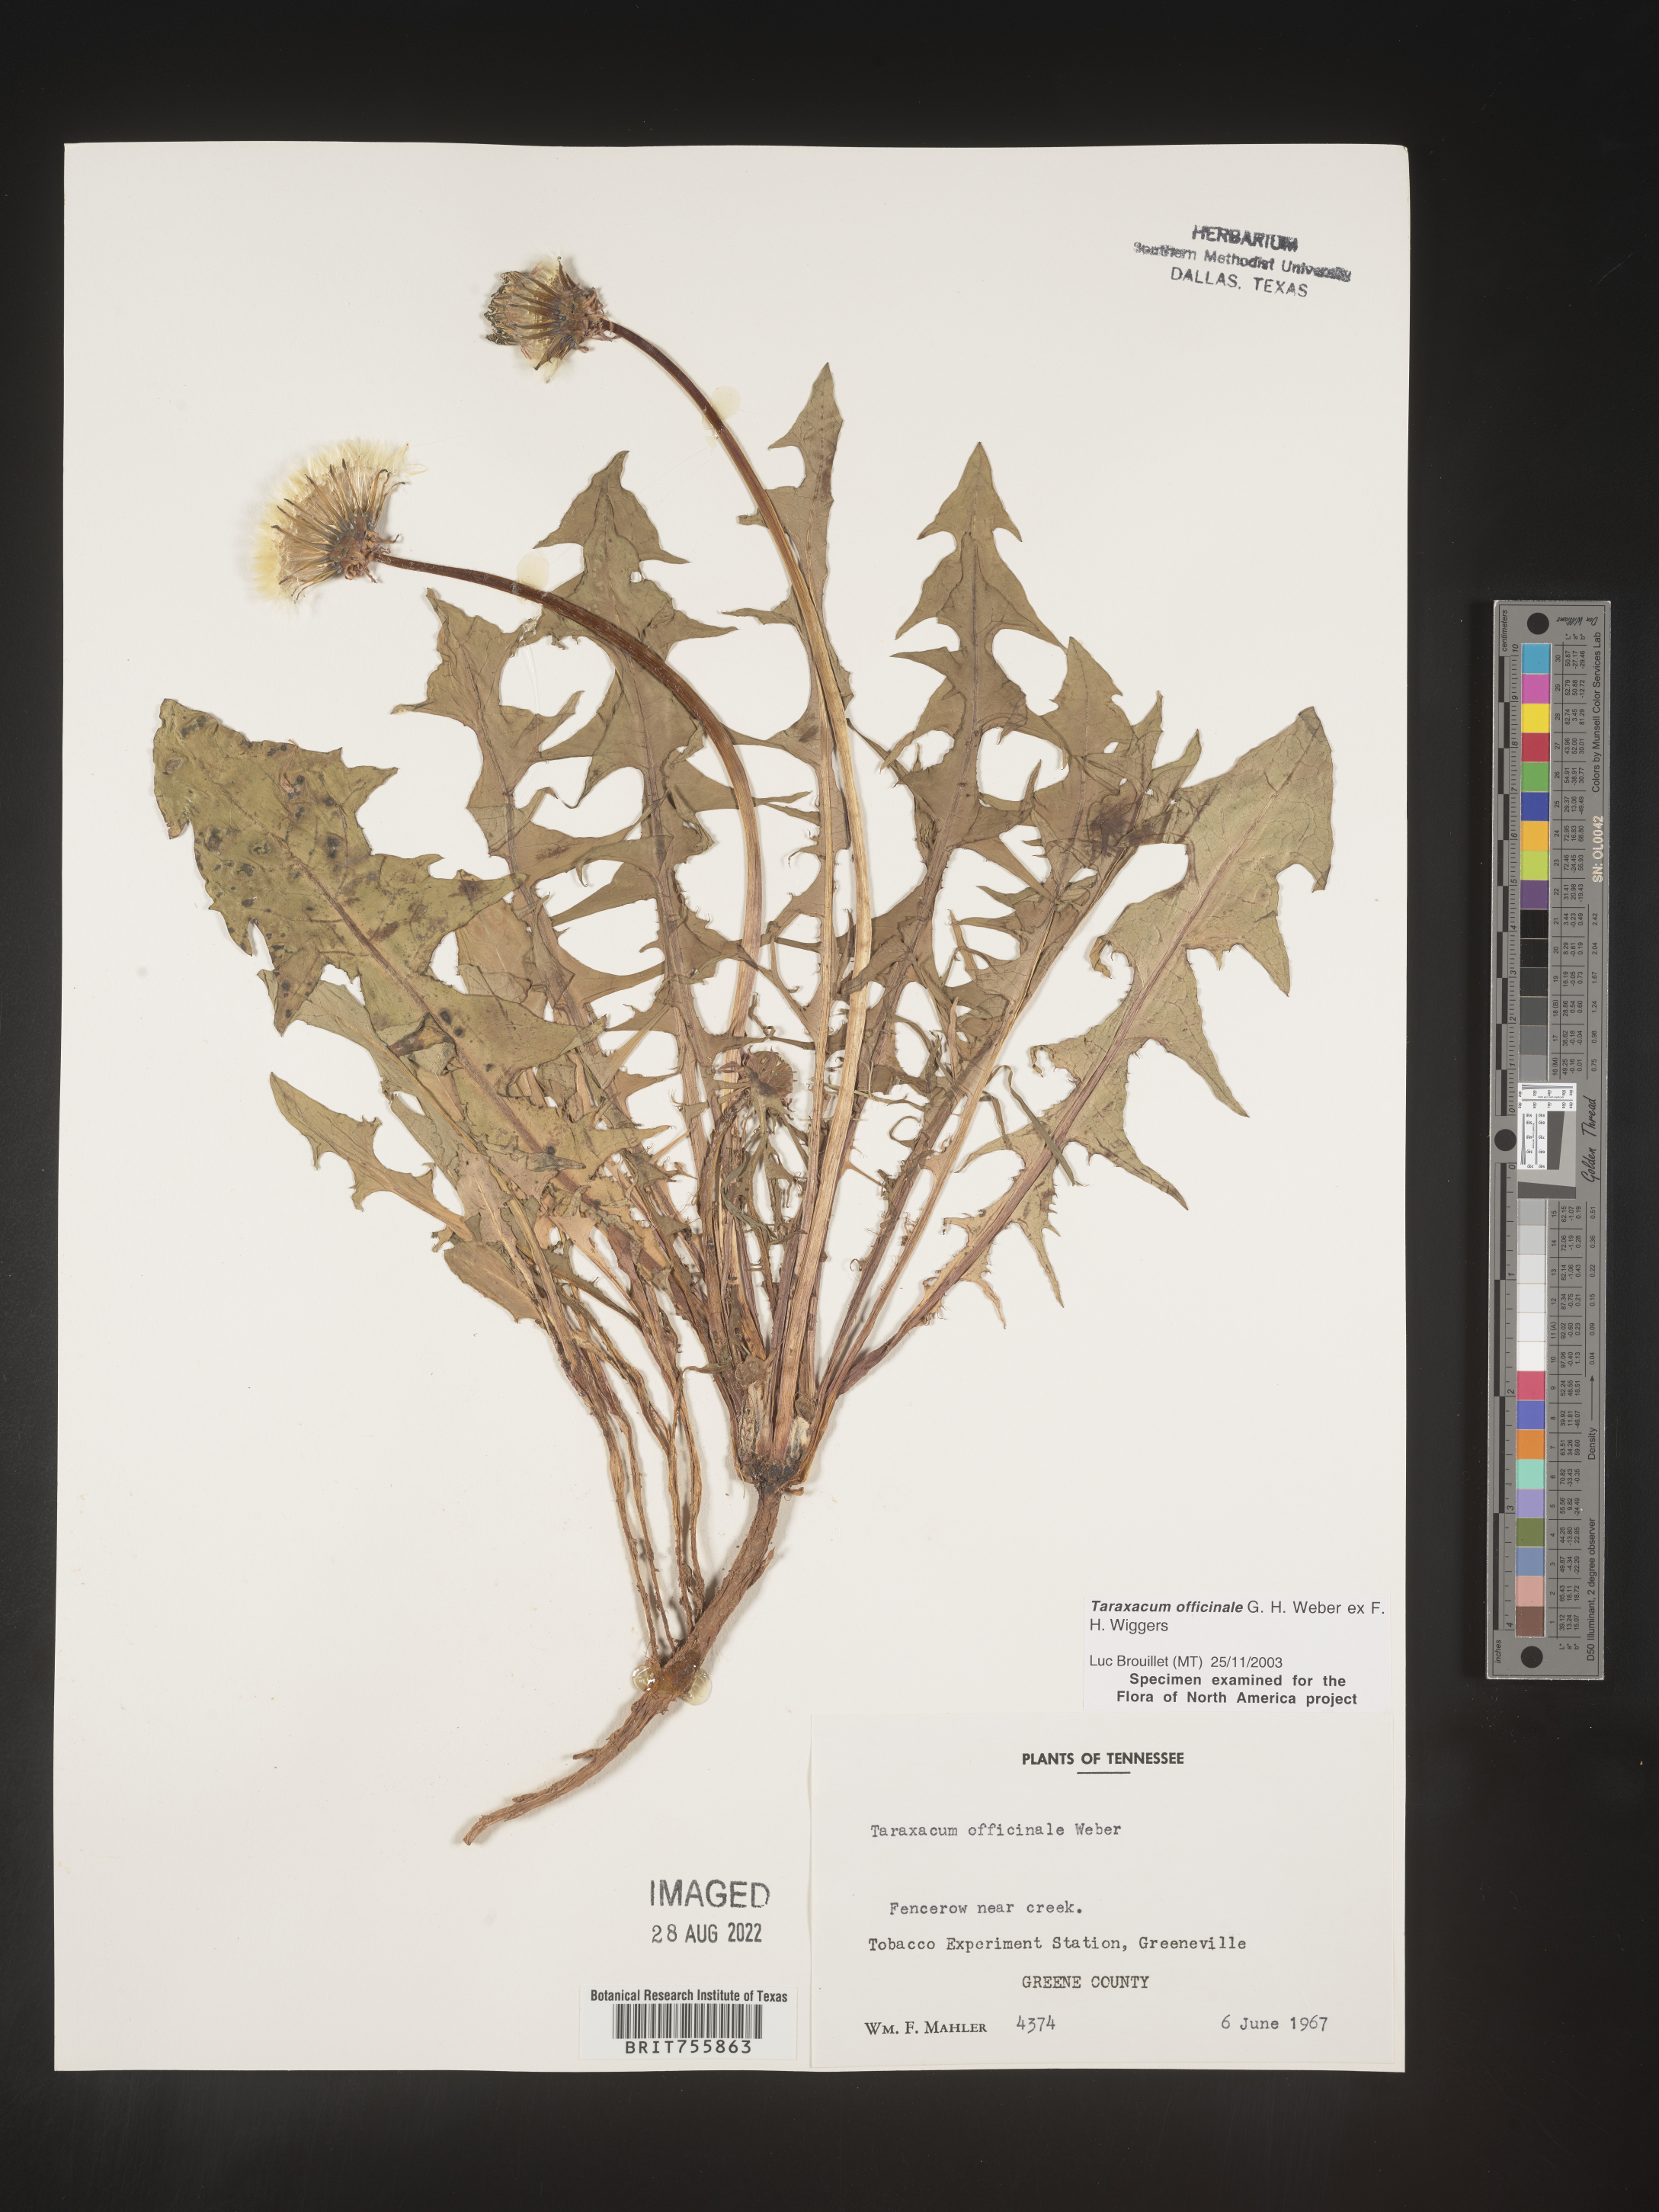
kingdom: Plantae
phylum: Tracheophyta
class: Magnoliopsida
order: Asterales
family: Asteraceae
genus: Taraxacum
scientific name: Taraxacum officinale
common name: Common dandelion
